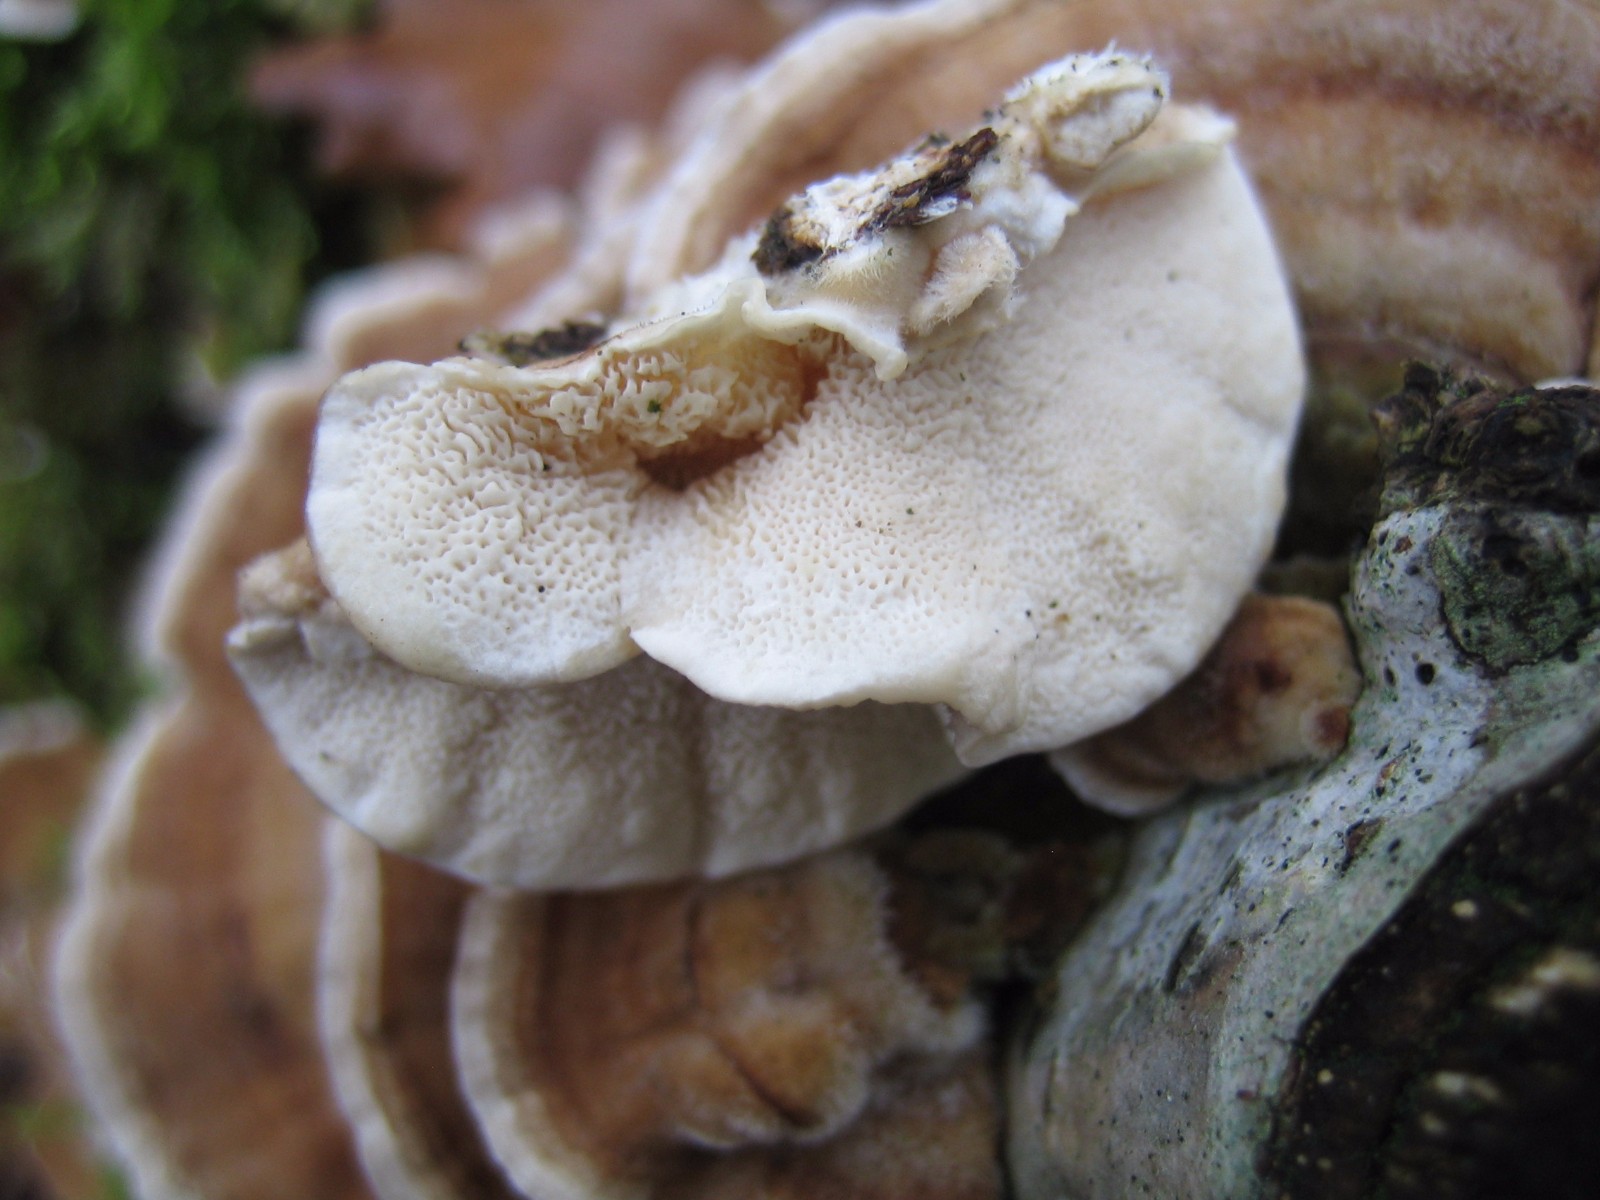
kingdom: Fungi
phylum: Basidiomycota
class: Agaricomycetes
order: Polyporales
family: Polyporaceae
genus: Trametes
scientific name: Trametes versicolor
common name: broget læderporesvamp
